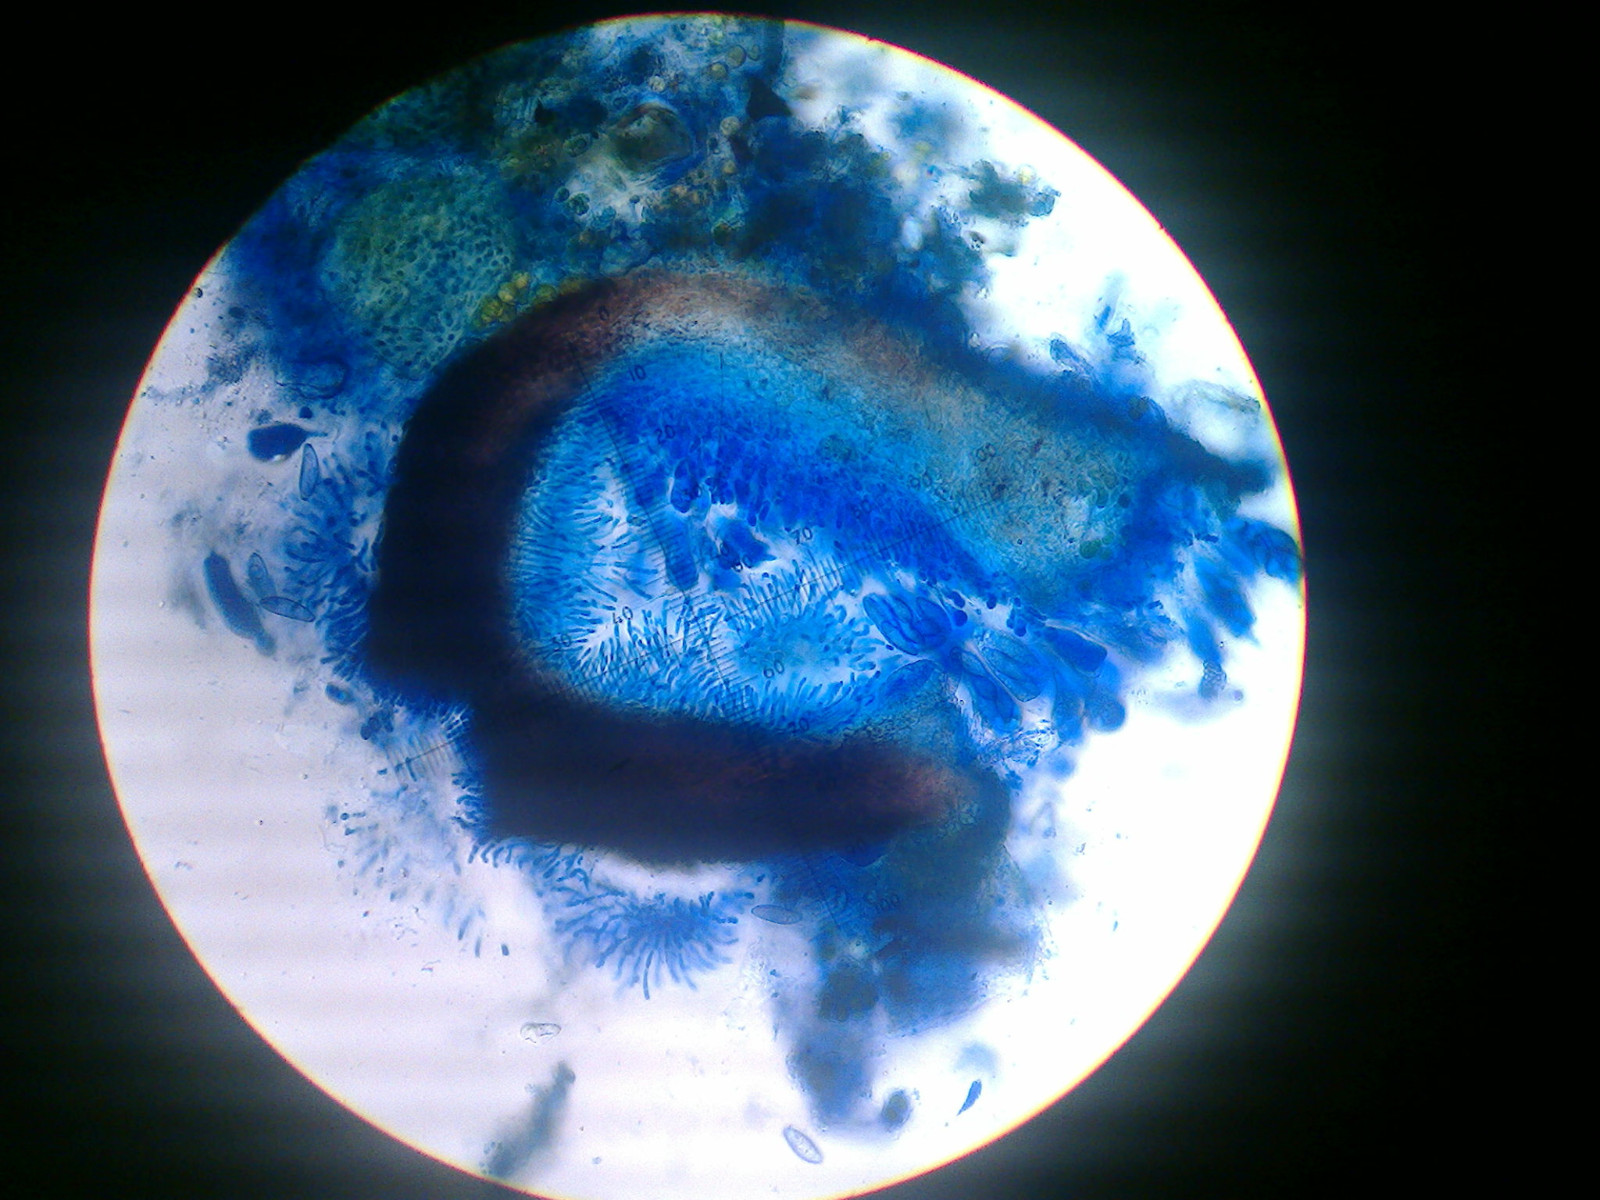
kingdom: Fungi
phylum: Ascomycota
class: Eurotiomycetes
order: Verrucariales
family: Verrucariaceae
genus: Verrucaria
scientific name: Verrucaria bryoctona
